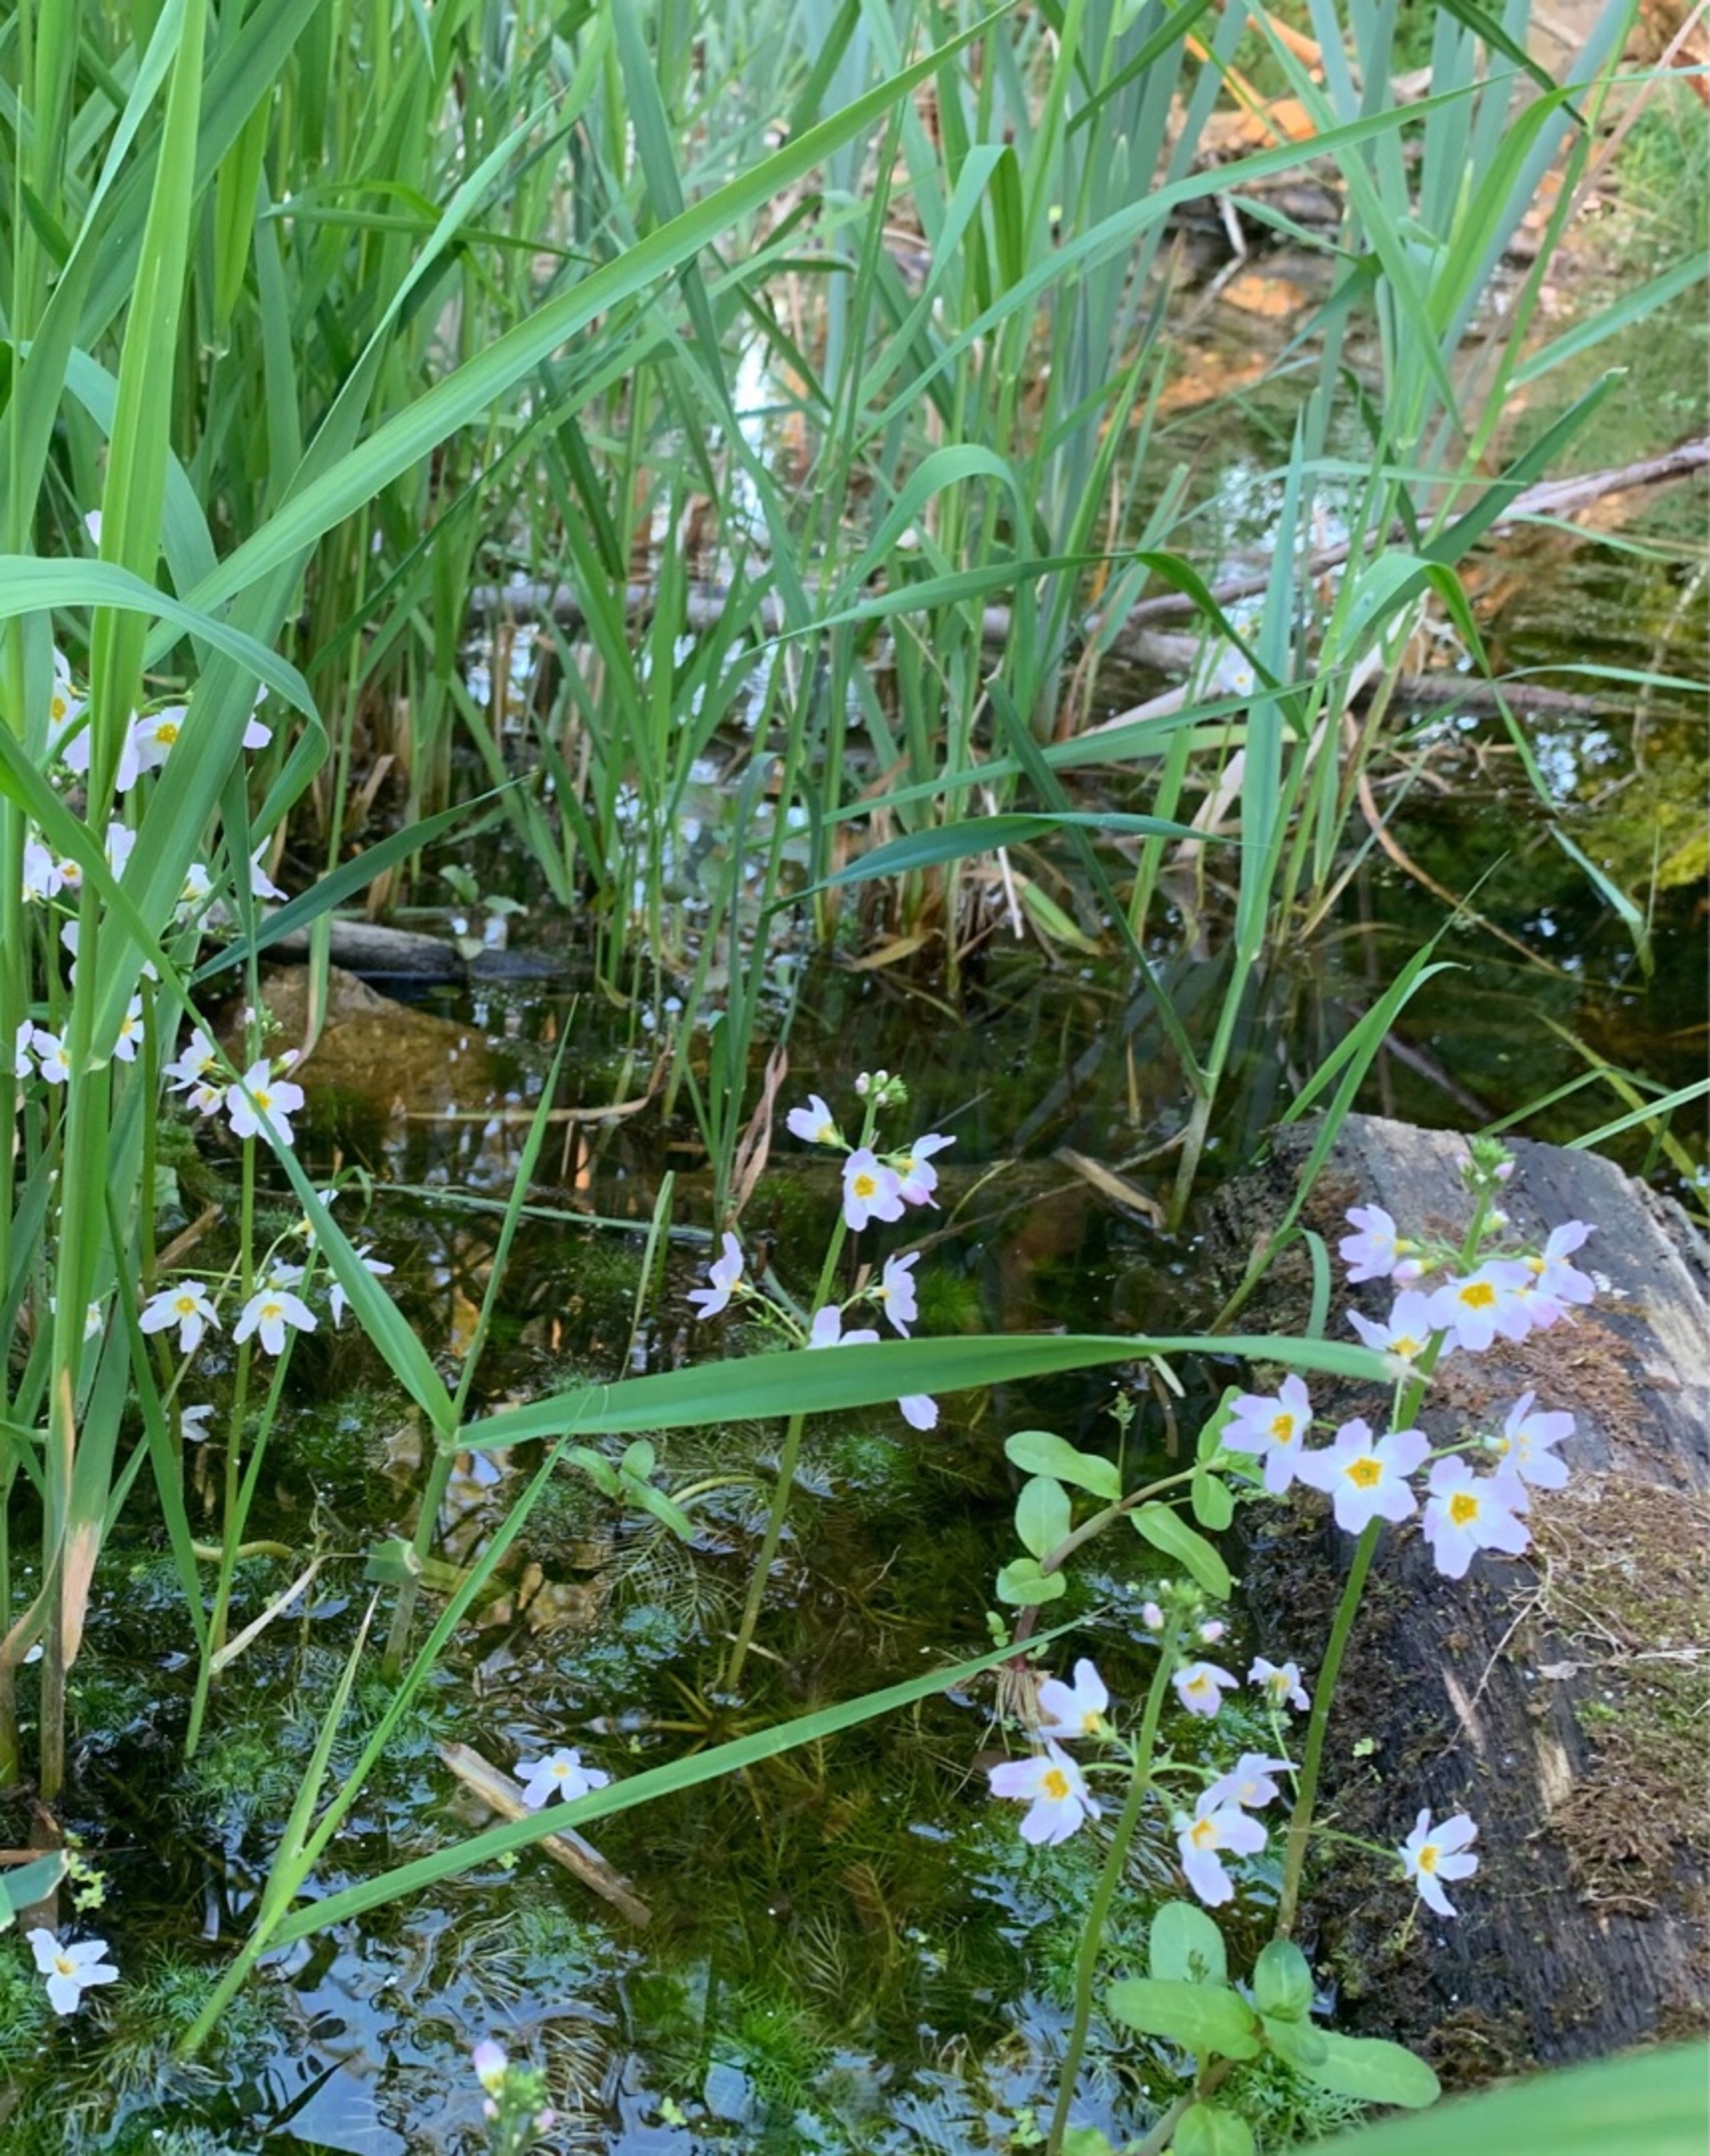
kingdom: Plantae
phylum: Tracheophyta
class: Magnoliopsida
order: Ericales
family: Primulaceae
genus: Hottonia
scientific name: Hottonia palustris
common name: Vandrøllike
